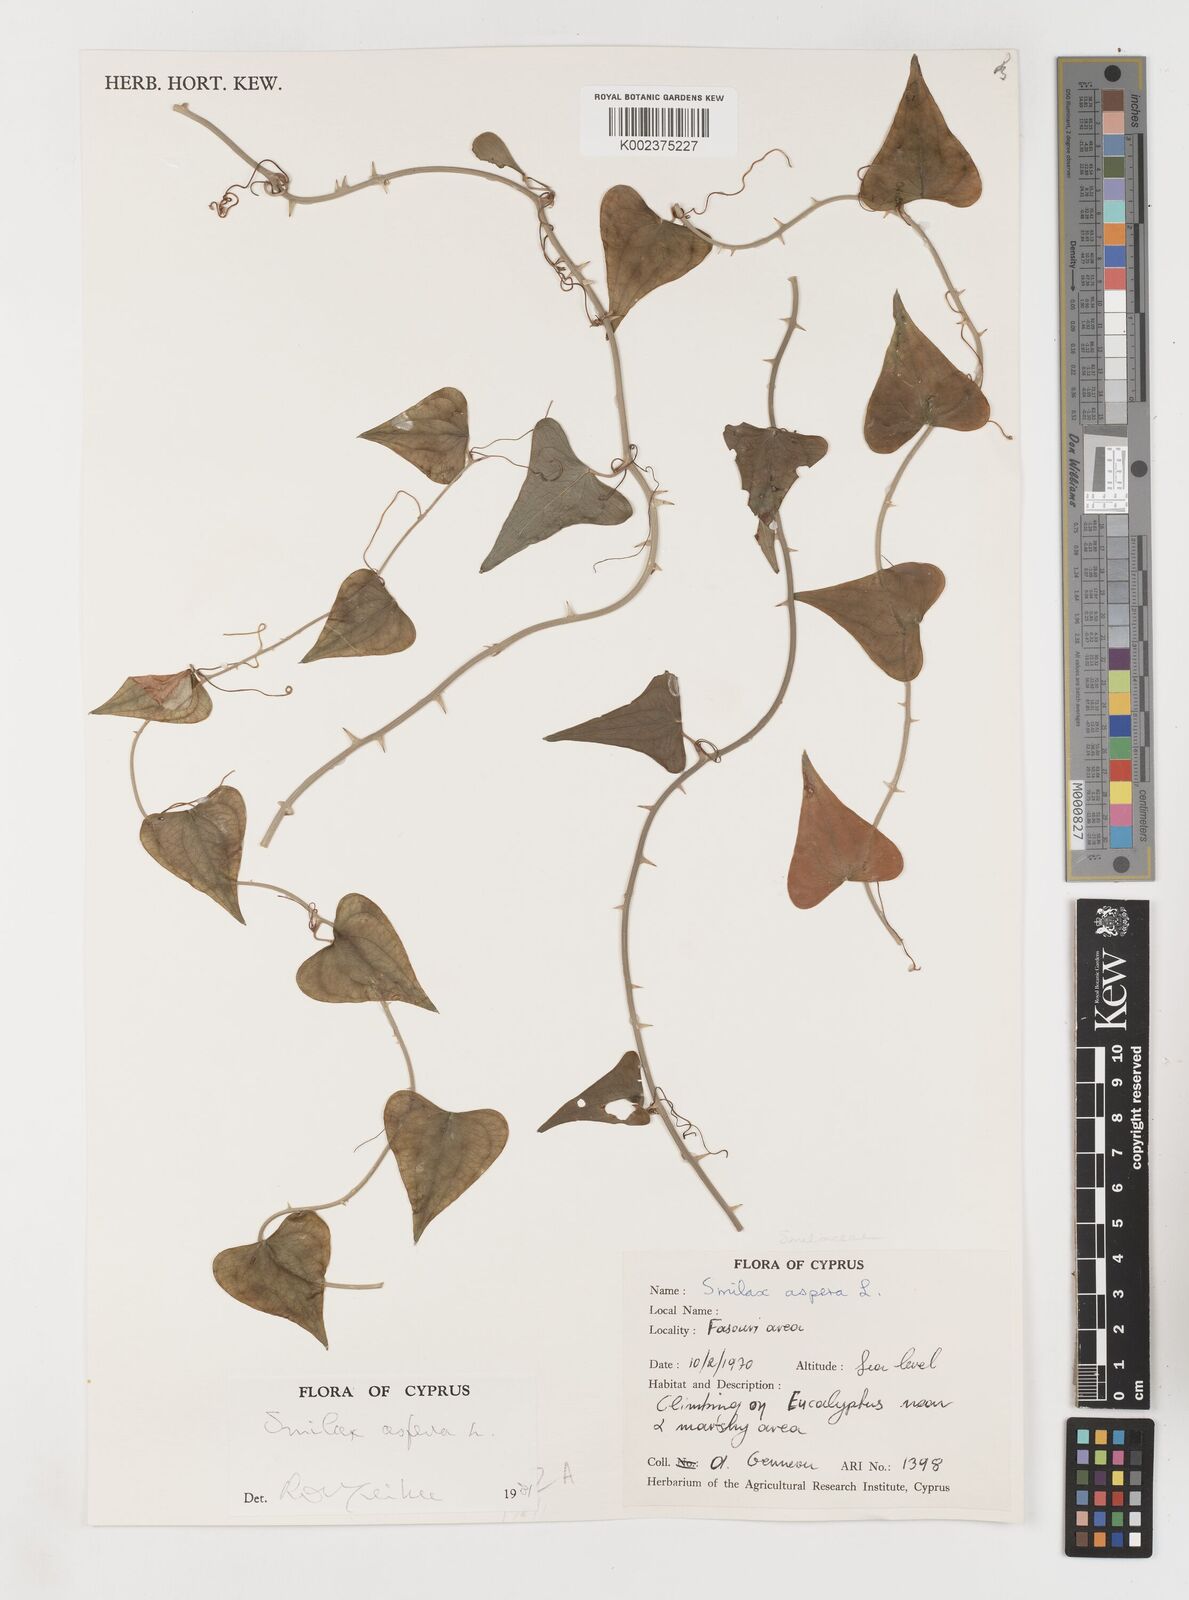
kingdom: Plantae
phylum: Tracheophyta
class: Liliopsida
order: Liliales
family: Smilacaceae
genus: Smilax
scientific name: Smilax aspera
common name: Common smilax
